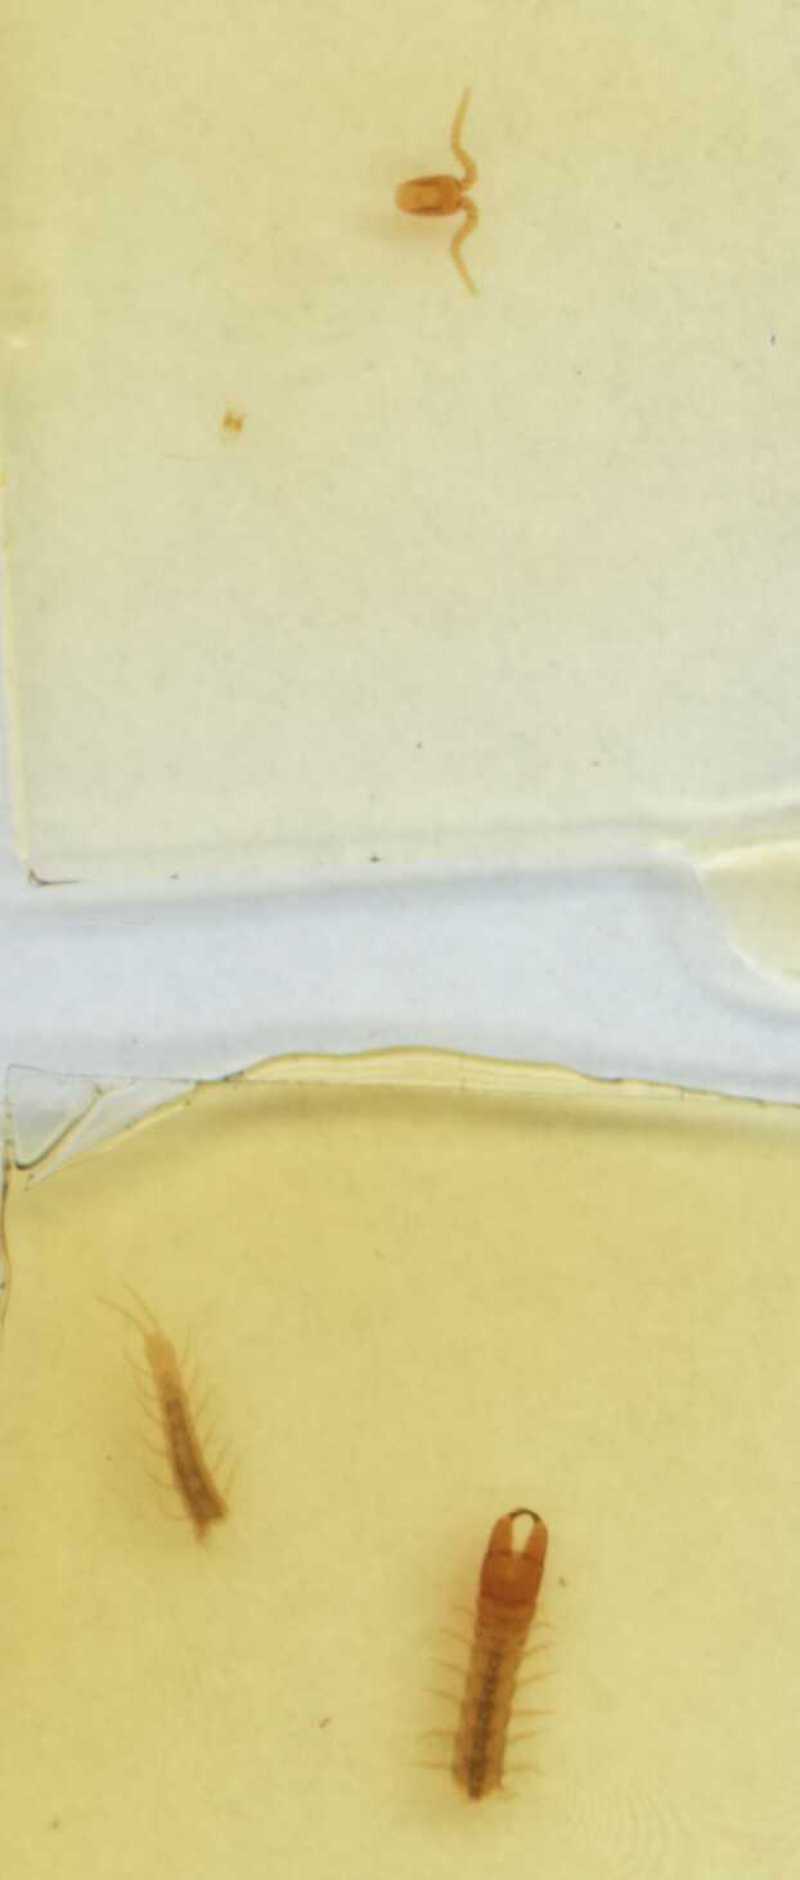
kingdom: Animalia
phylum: Arthropoda
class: Chilopoda
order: Geophilomorpha
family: Mecistocephalidae
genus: Tygarrup
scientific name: Tygarrup singaporiensis
